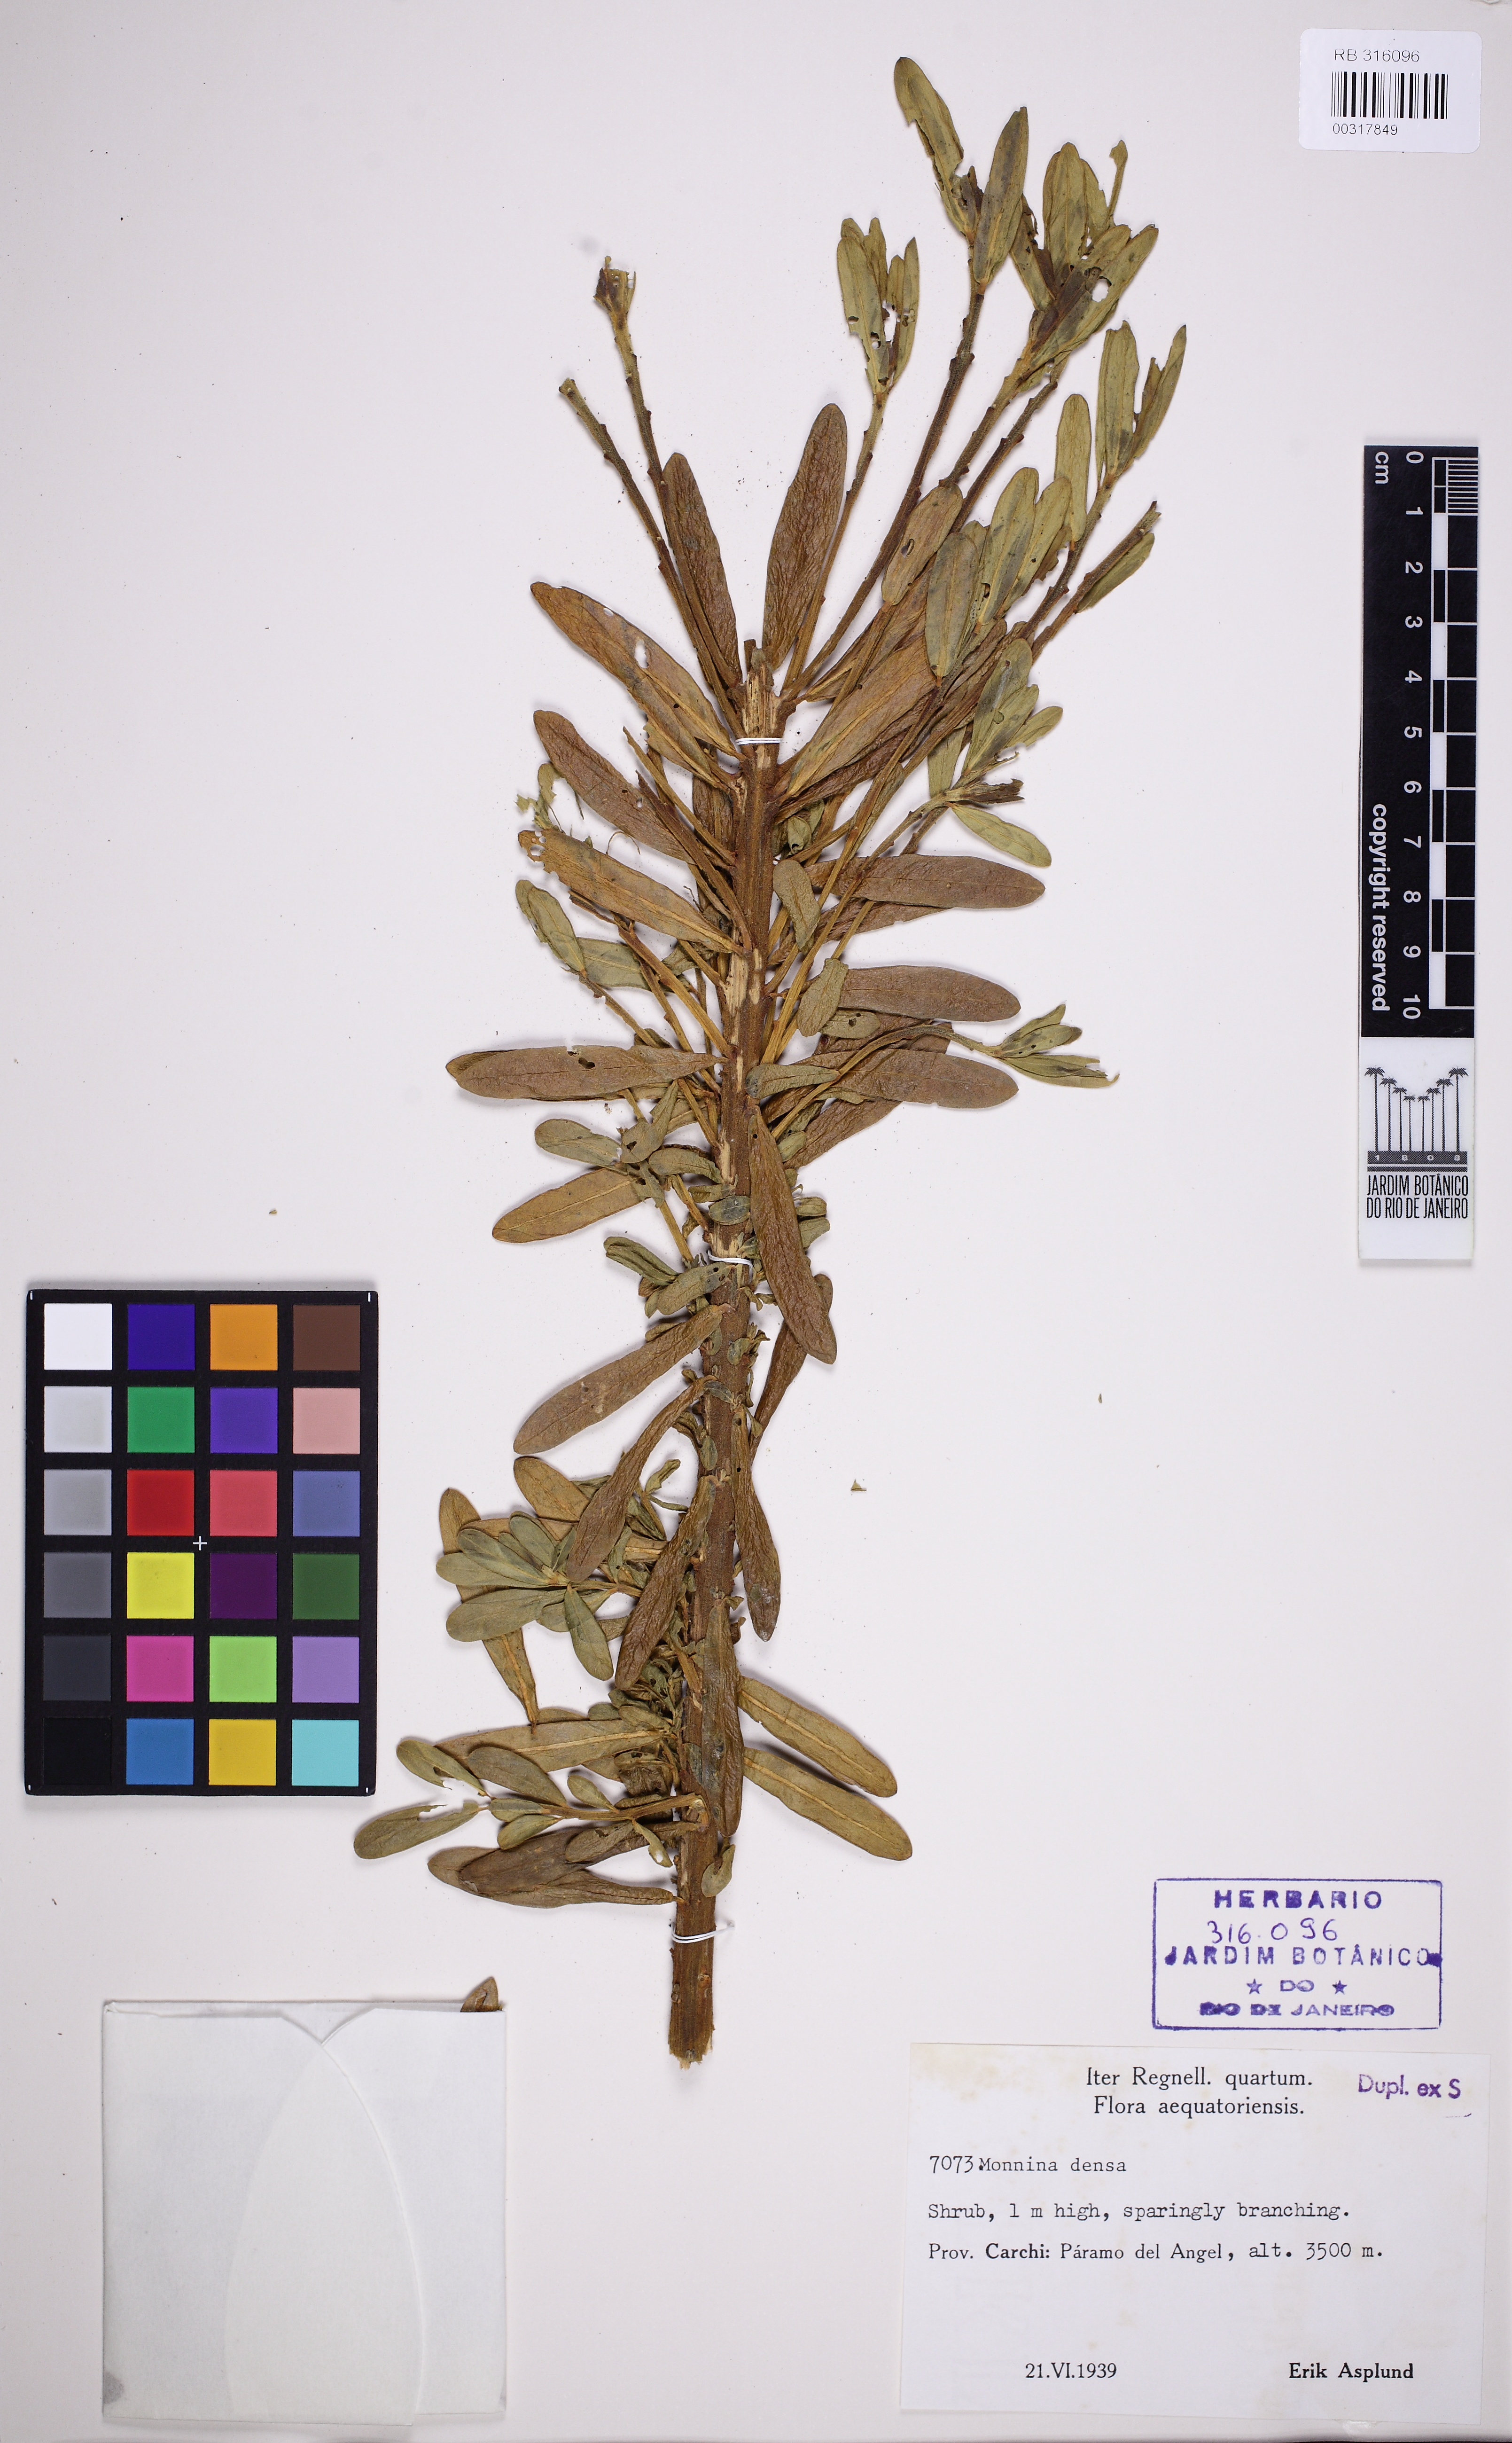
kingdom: Plantae
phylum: Tracheophyta
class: Magnoliopsida
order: Fabales
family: Polygalaceae
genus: Monnina
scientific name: Monnina densa
